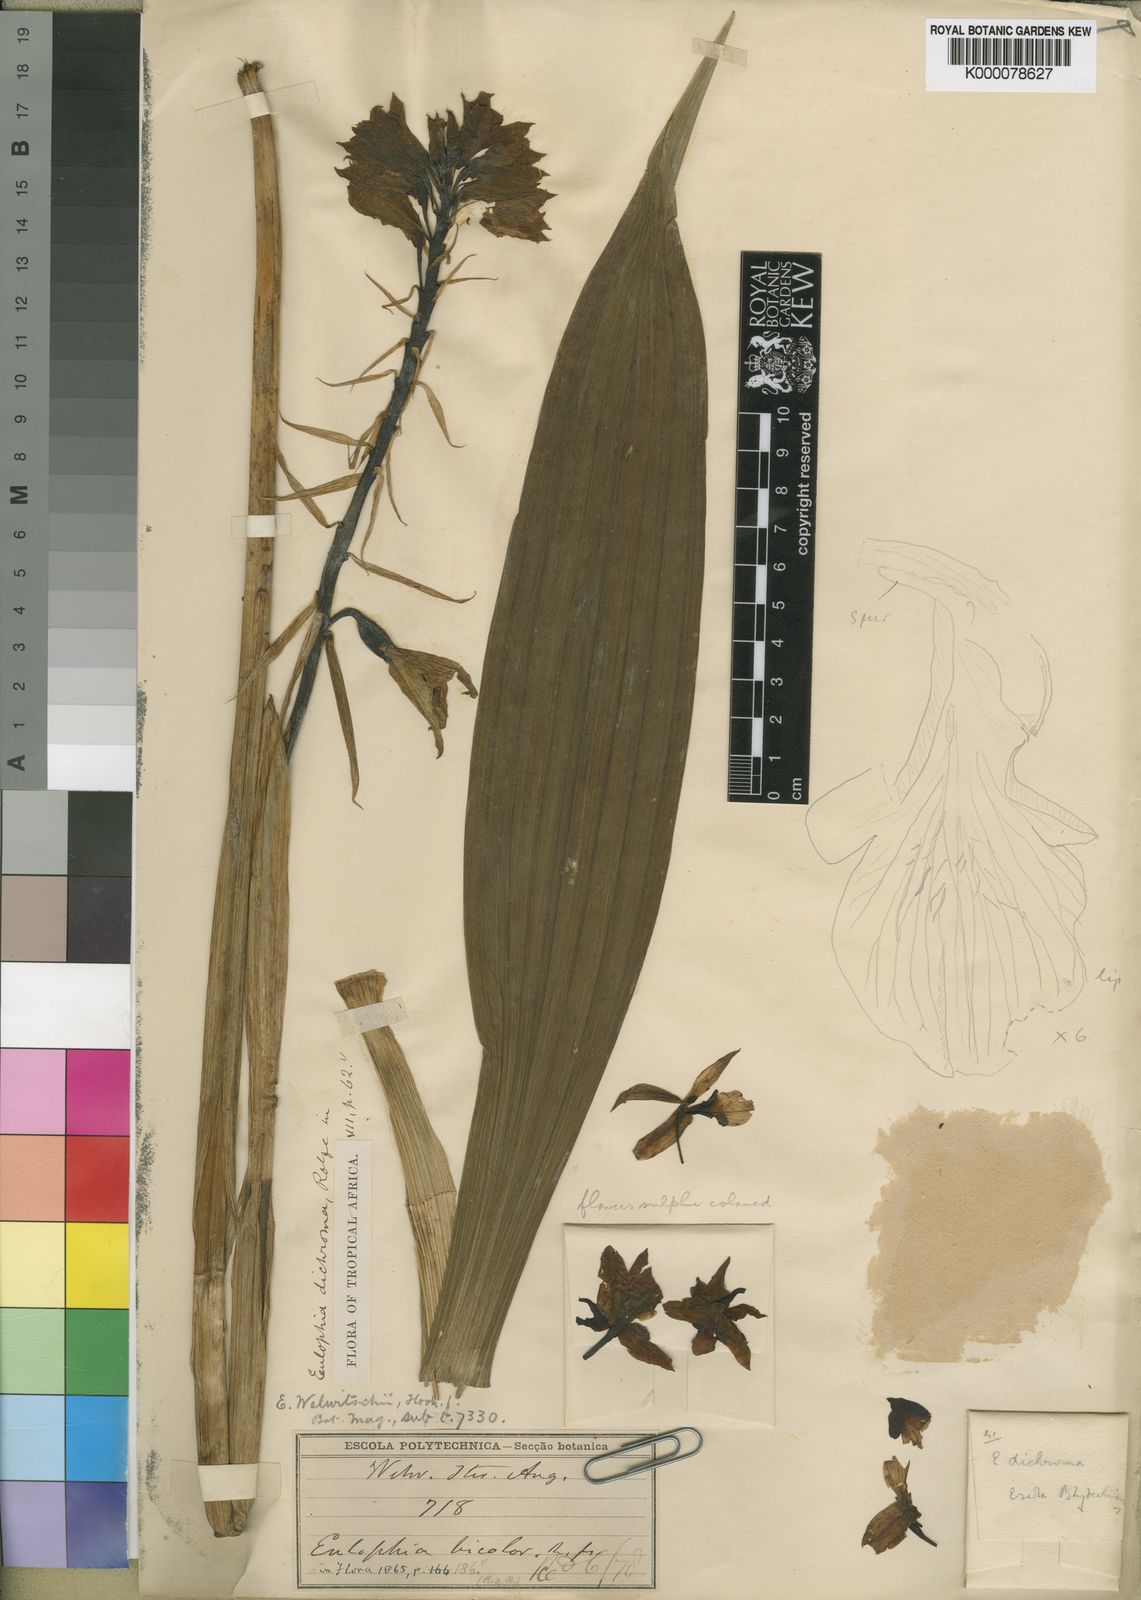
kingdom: Plantae
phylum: Tracheophyta
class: Liliopsida
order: Asparagales
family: Orchidaceae
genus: Eulophia
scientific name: Eulophia mechowii
